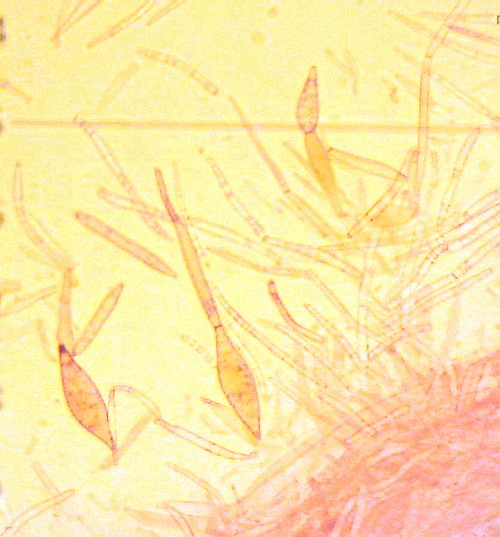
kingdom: Fungi
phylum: Basidiomycota
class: Agaricomycetes
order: Agaricales
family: Pluteaceae
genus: Pluteus
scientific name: Pluteus cervinus
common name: sodfarvet skærmhat
